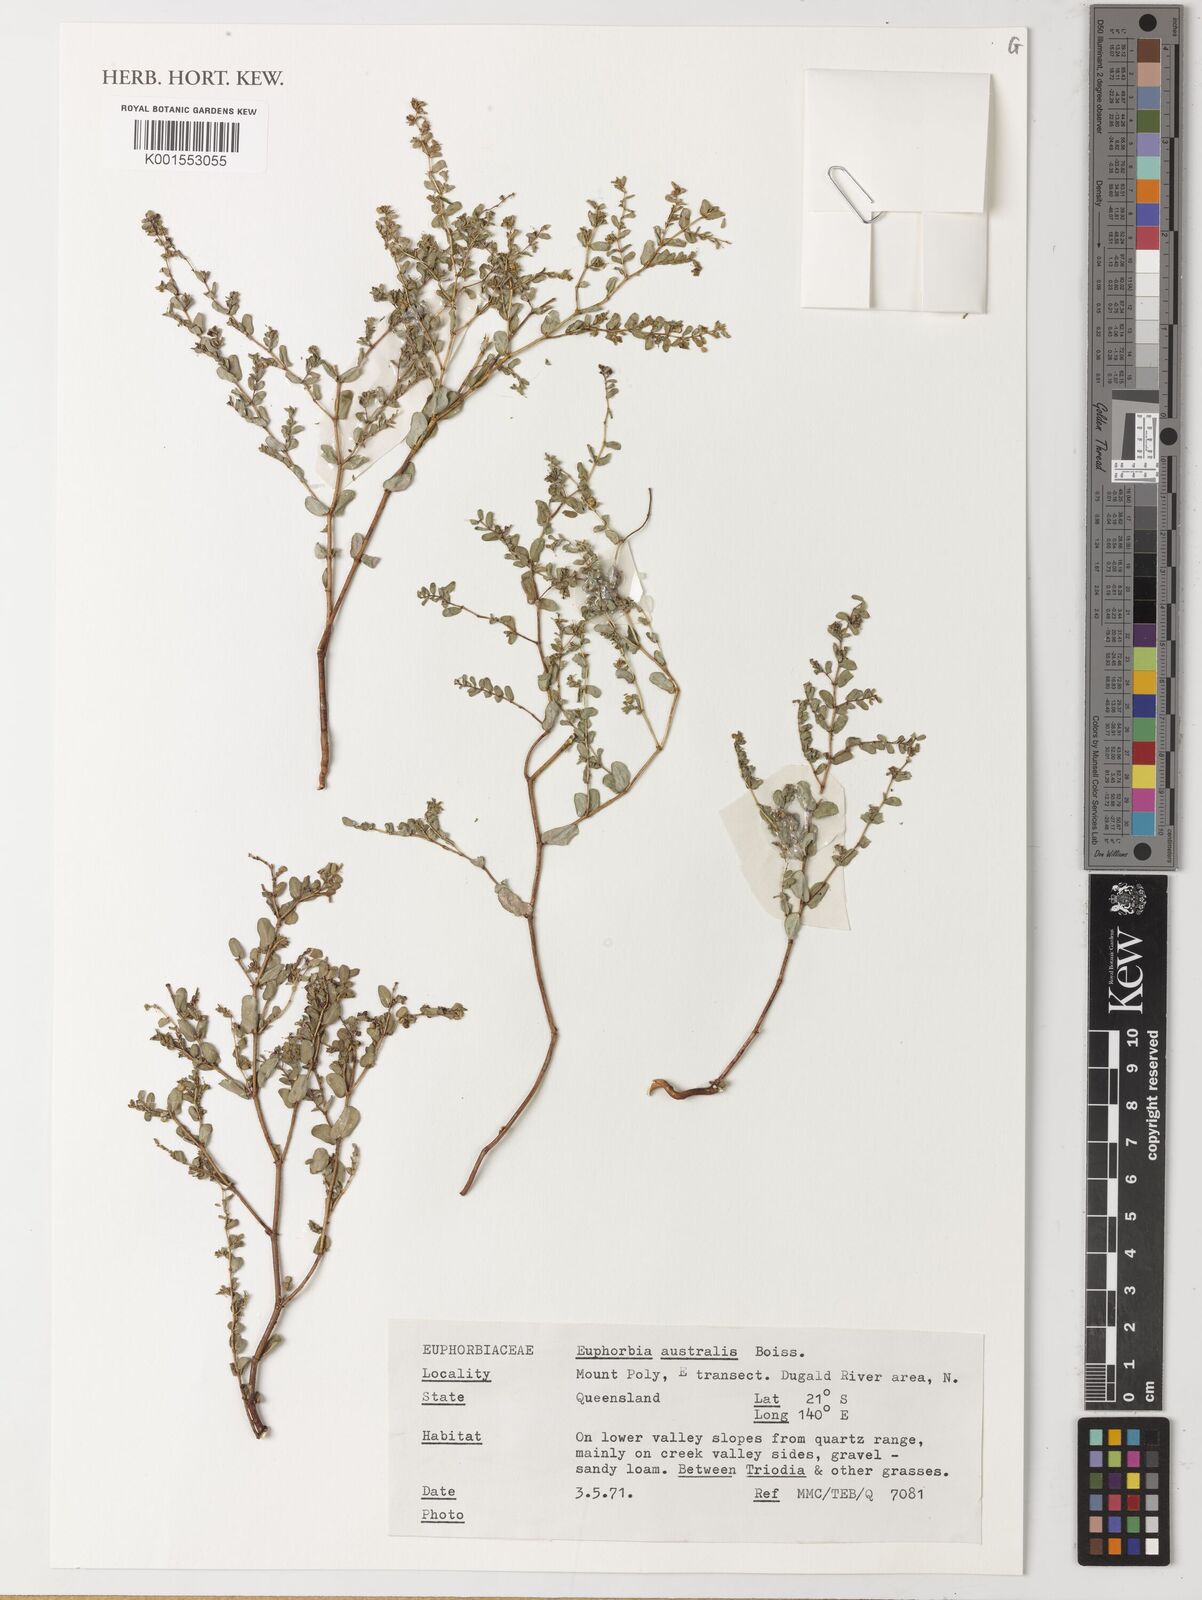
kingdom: Plantae
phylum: Tracheophyta
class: Magnoliopsida
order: Malpighiales
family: Euphorbiaceae
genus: Euphorbia
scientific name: Euphorbia australis
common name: Hairy causticweed
